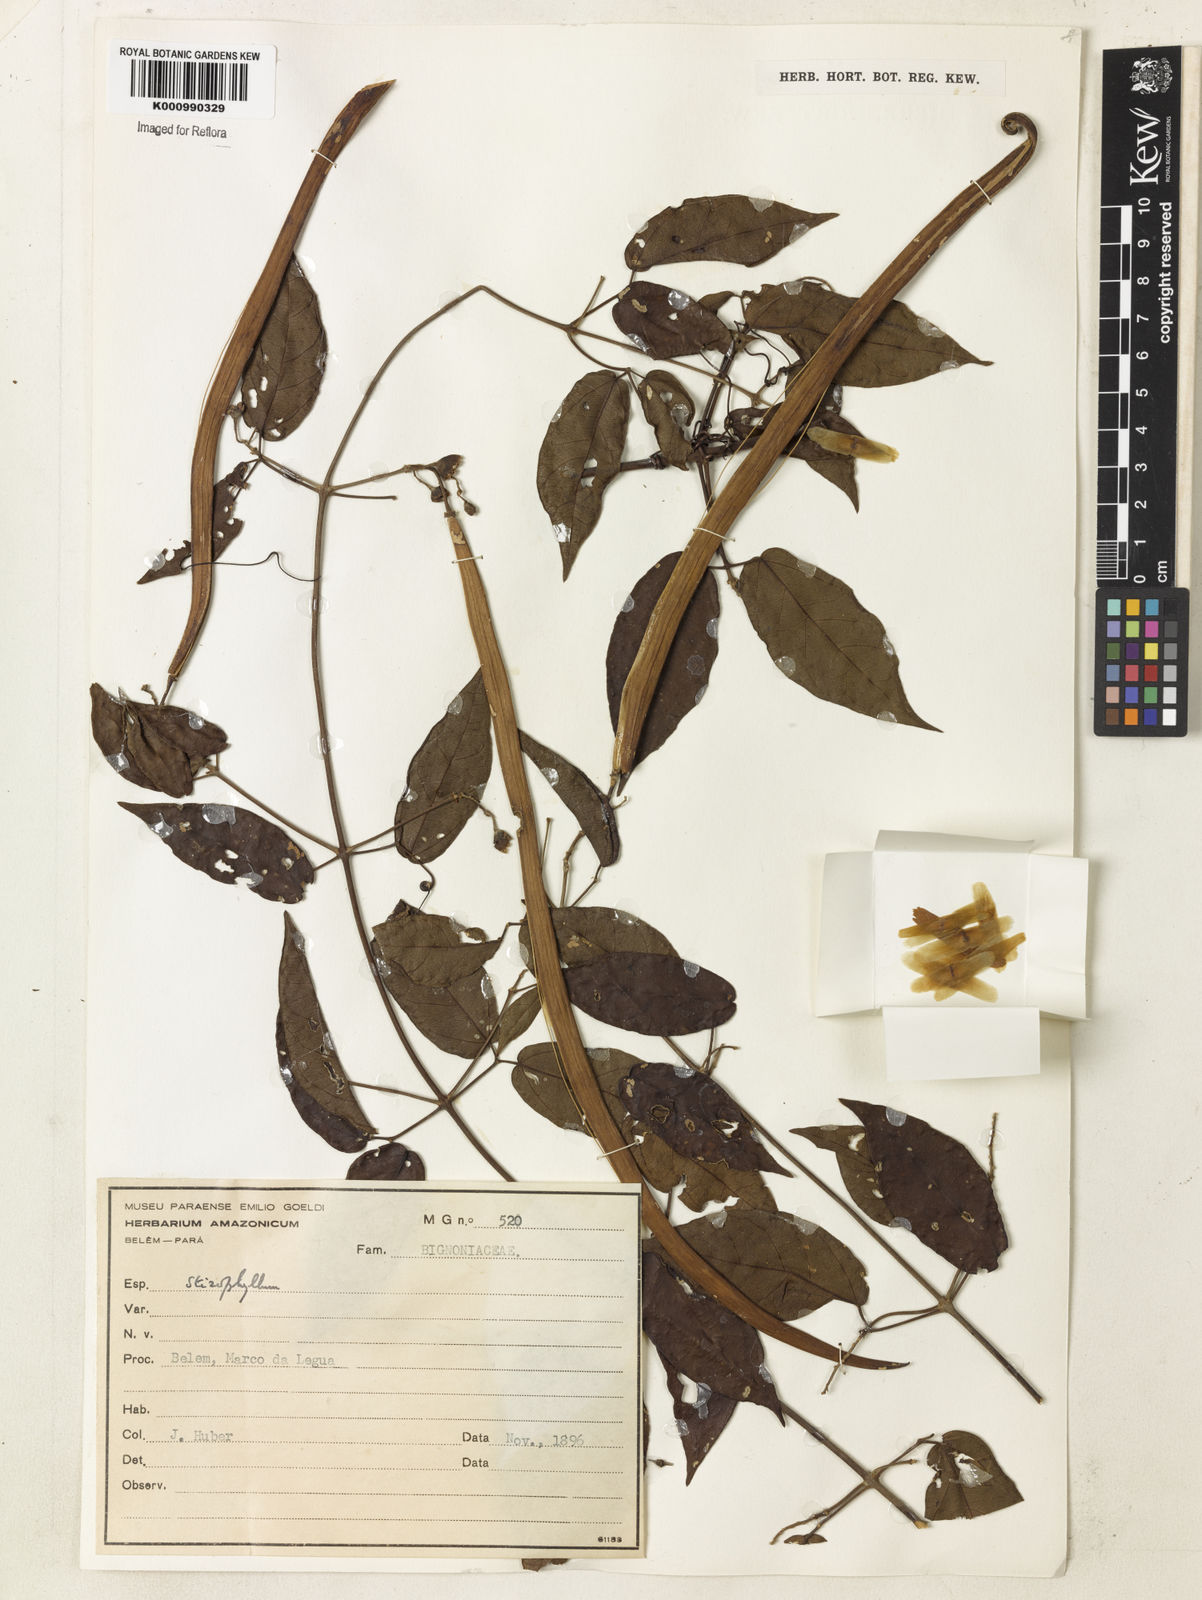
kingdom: Plantae
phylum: Tracheophyta
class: Magnoliopsida
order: Lamiales
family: Bignoniaceae
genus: Stizophyllum
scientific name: Stizophyllum
